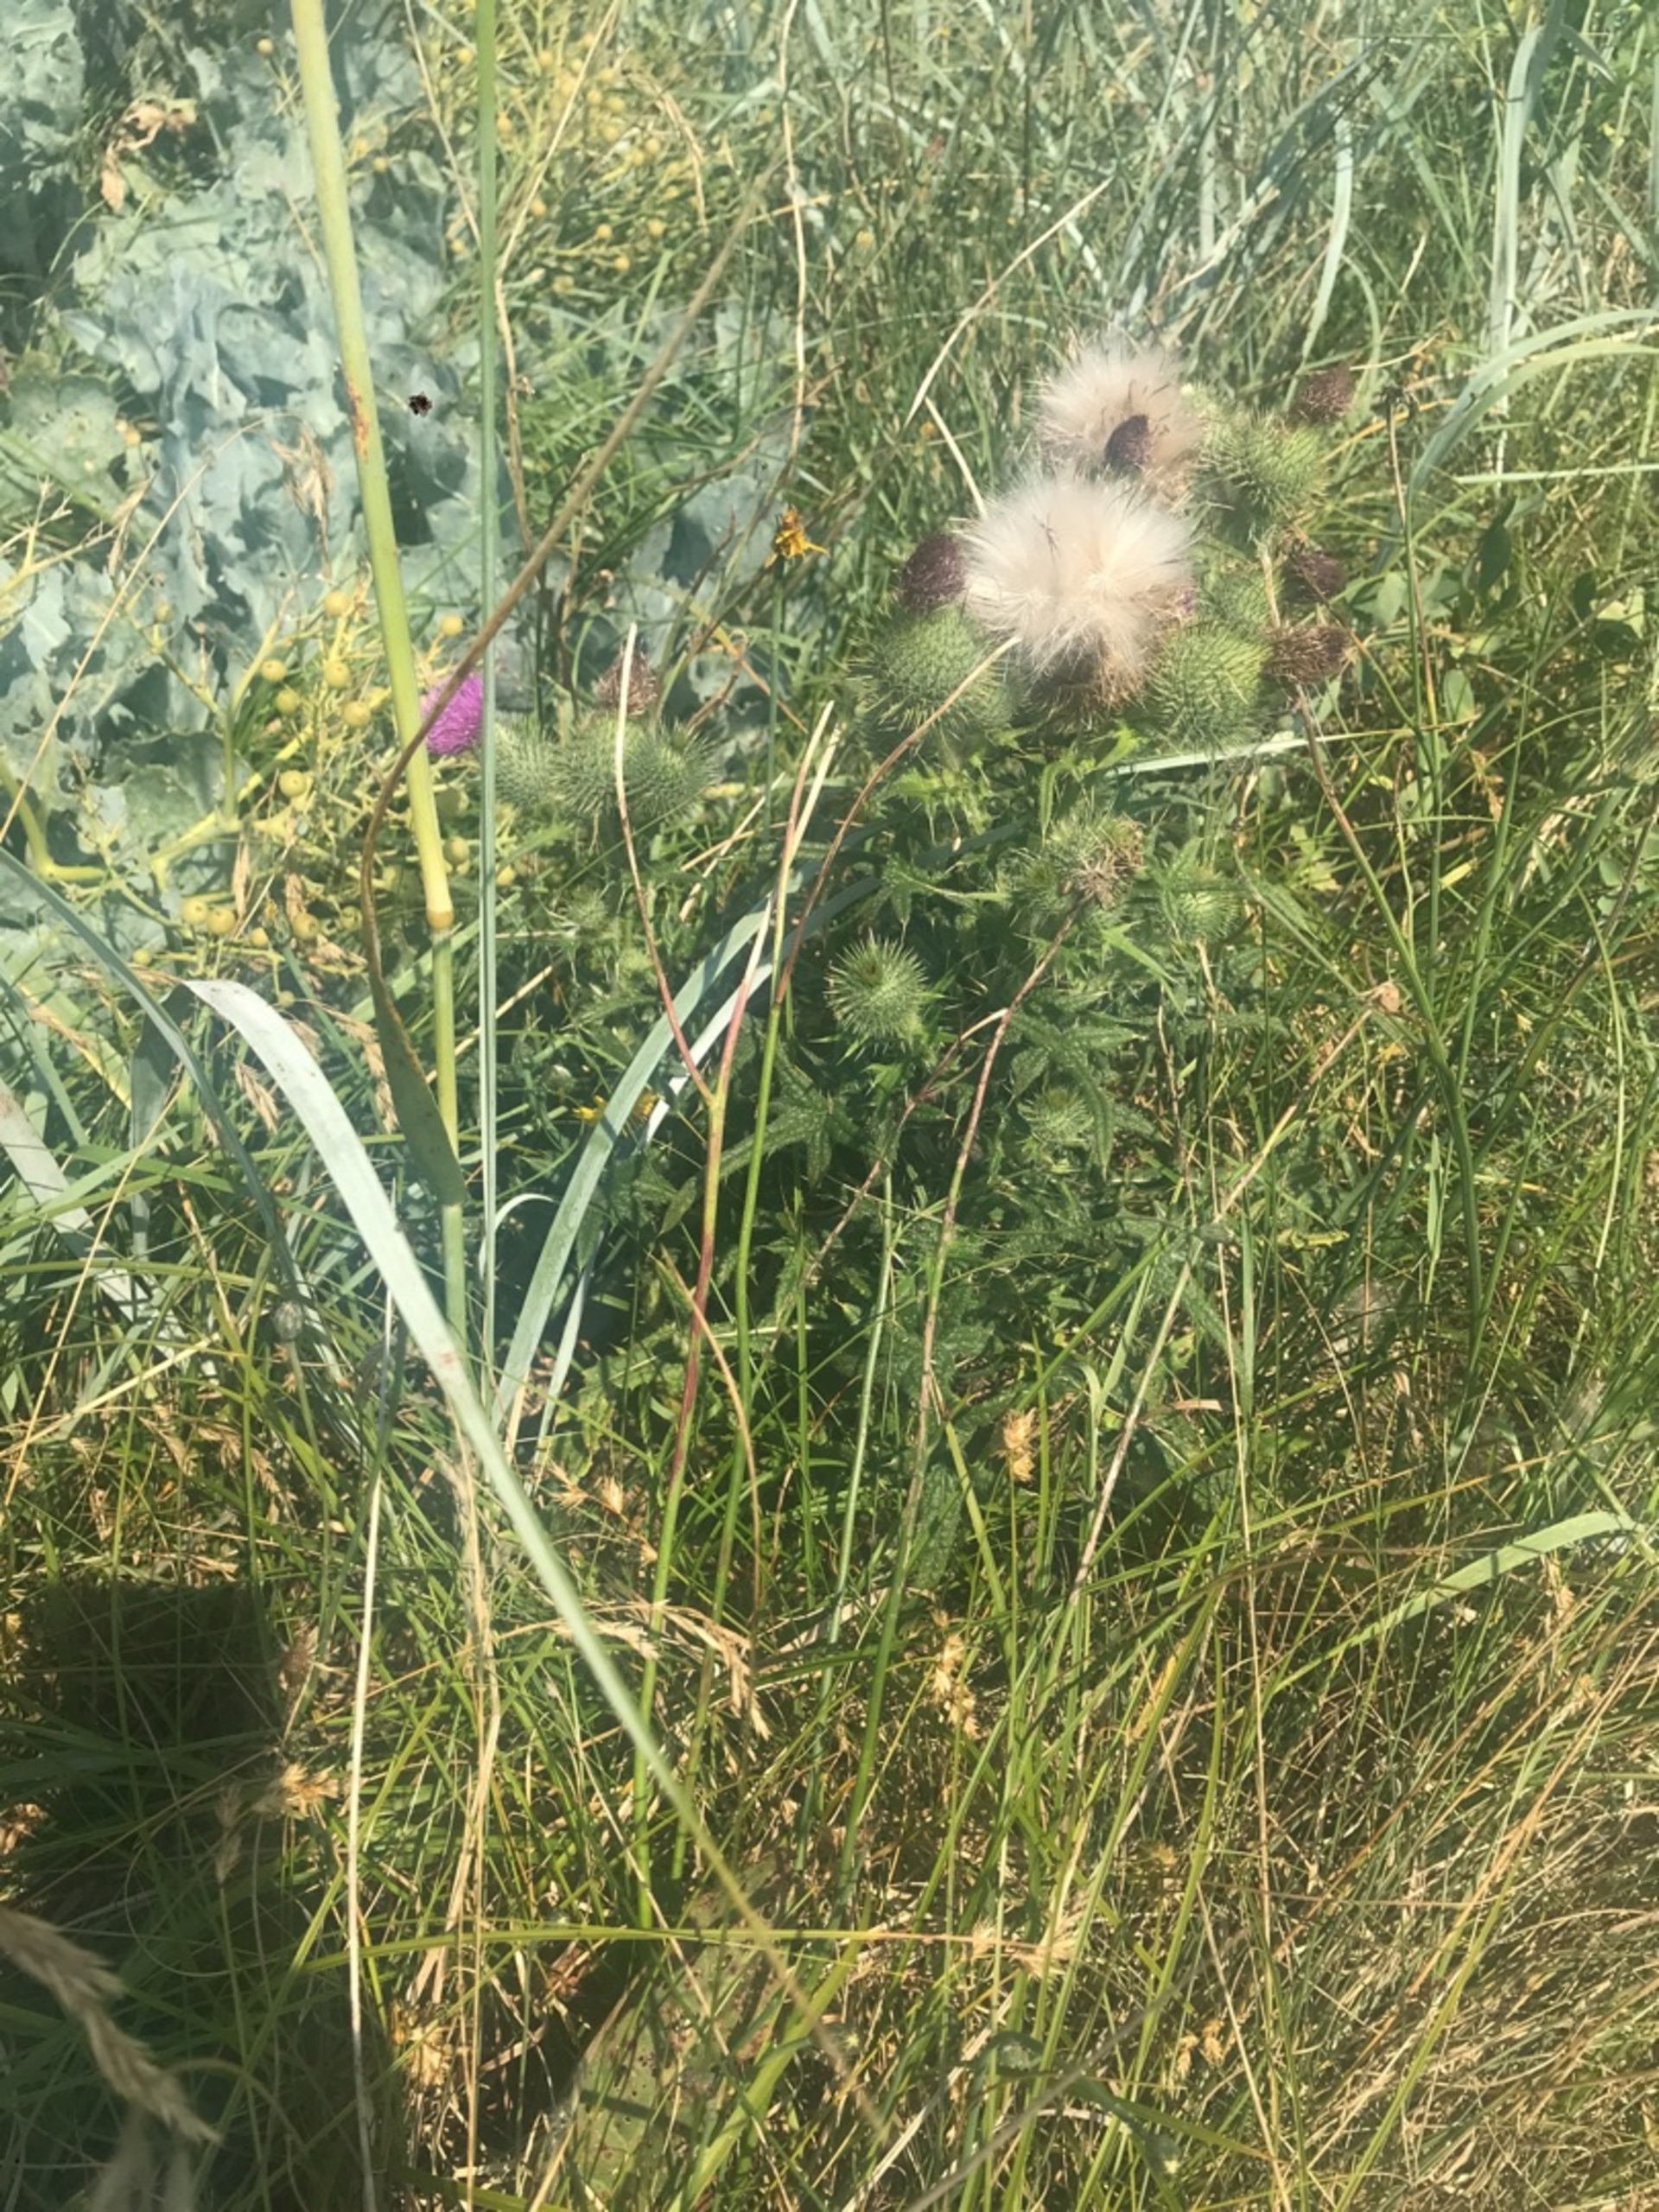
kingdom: Plantae
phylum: Tracheophyta
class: Magnoliopsida
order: Asterales
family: Asteraceae
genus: Cirsium
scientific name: Cirsium vulgare
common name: Horse-tidsel
